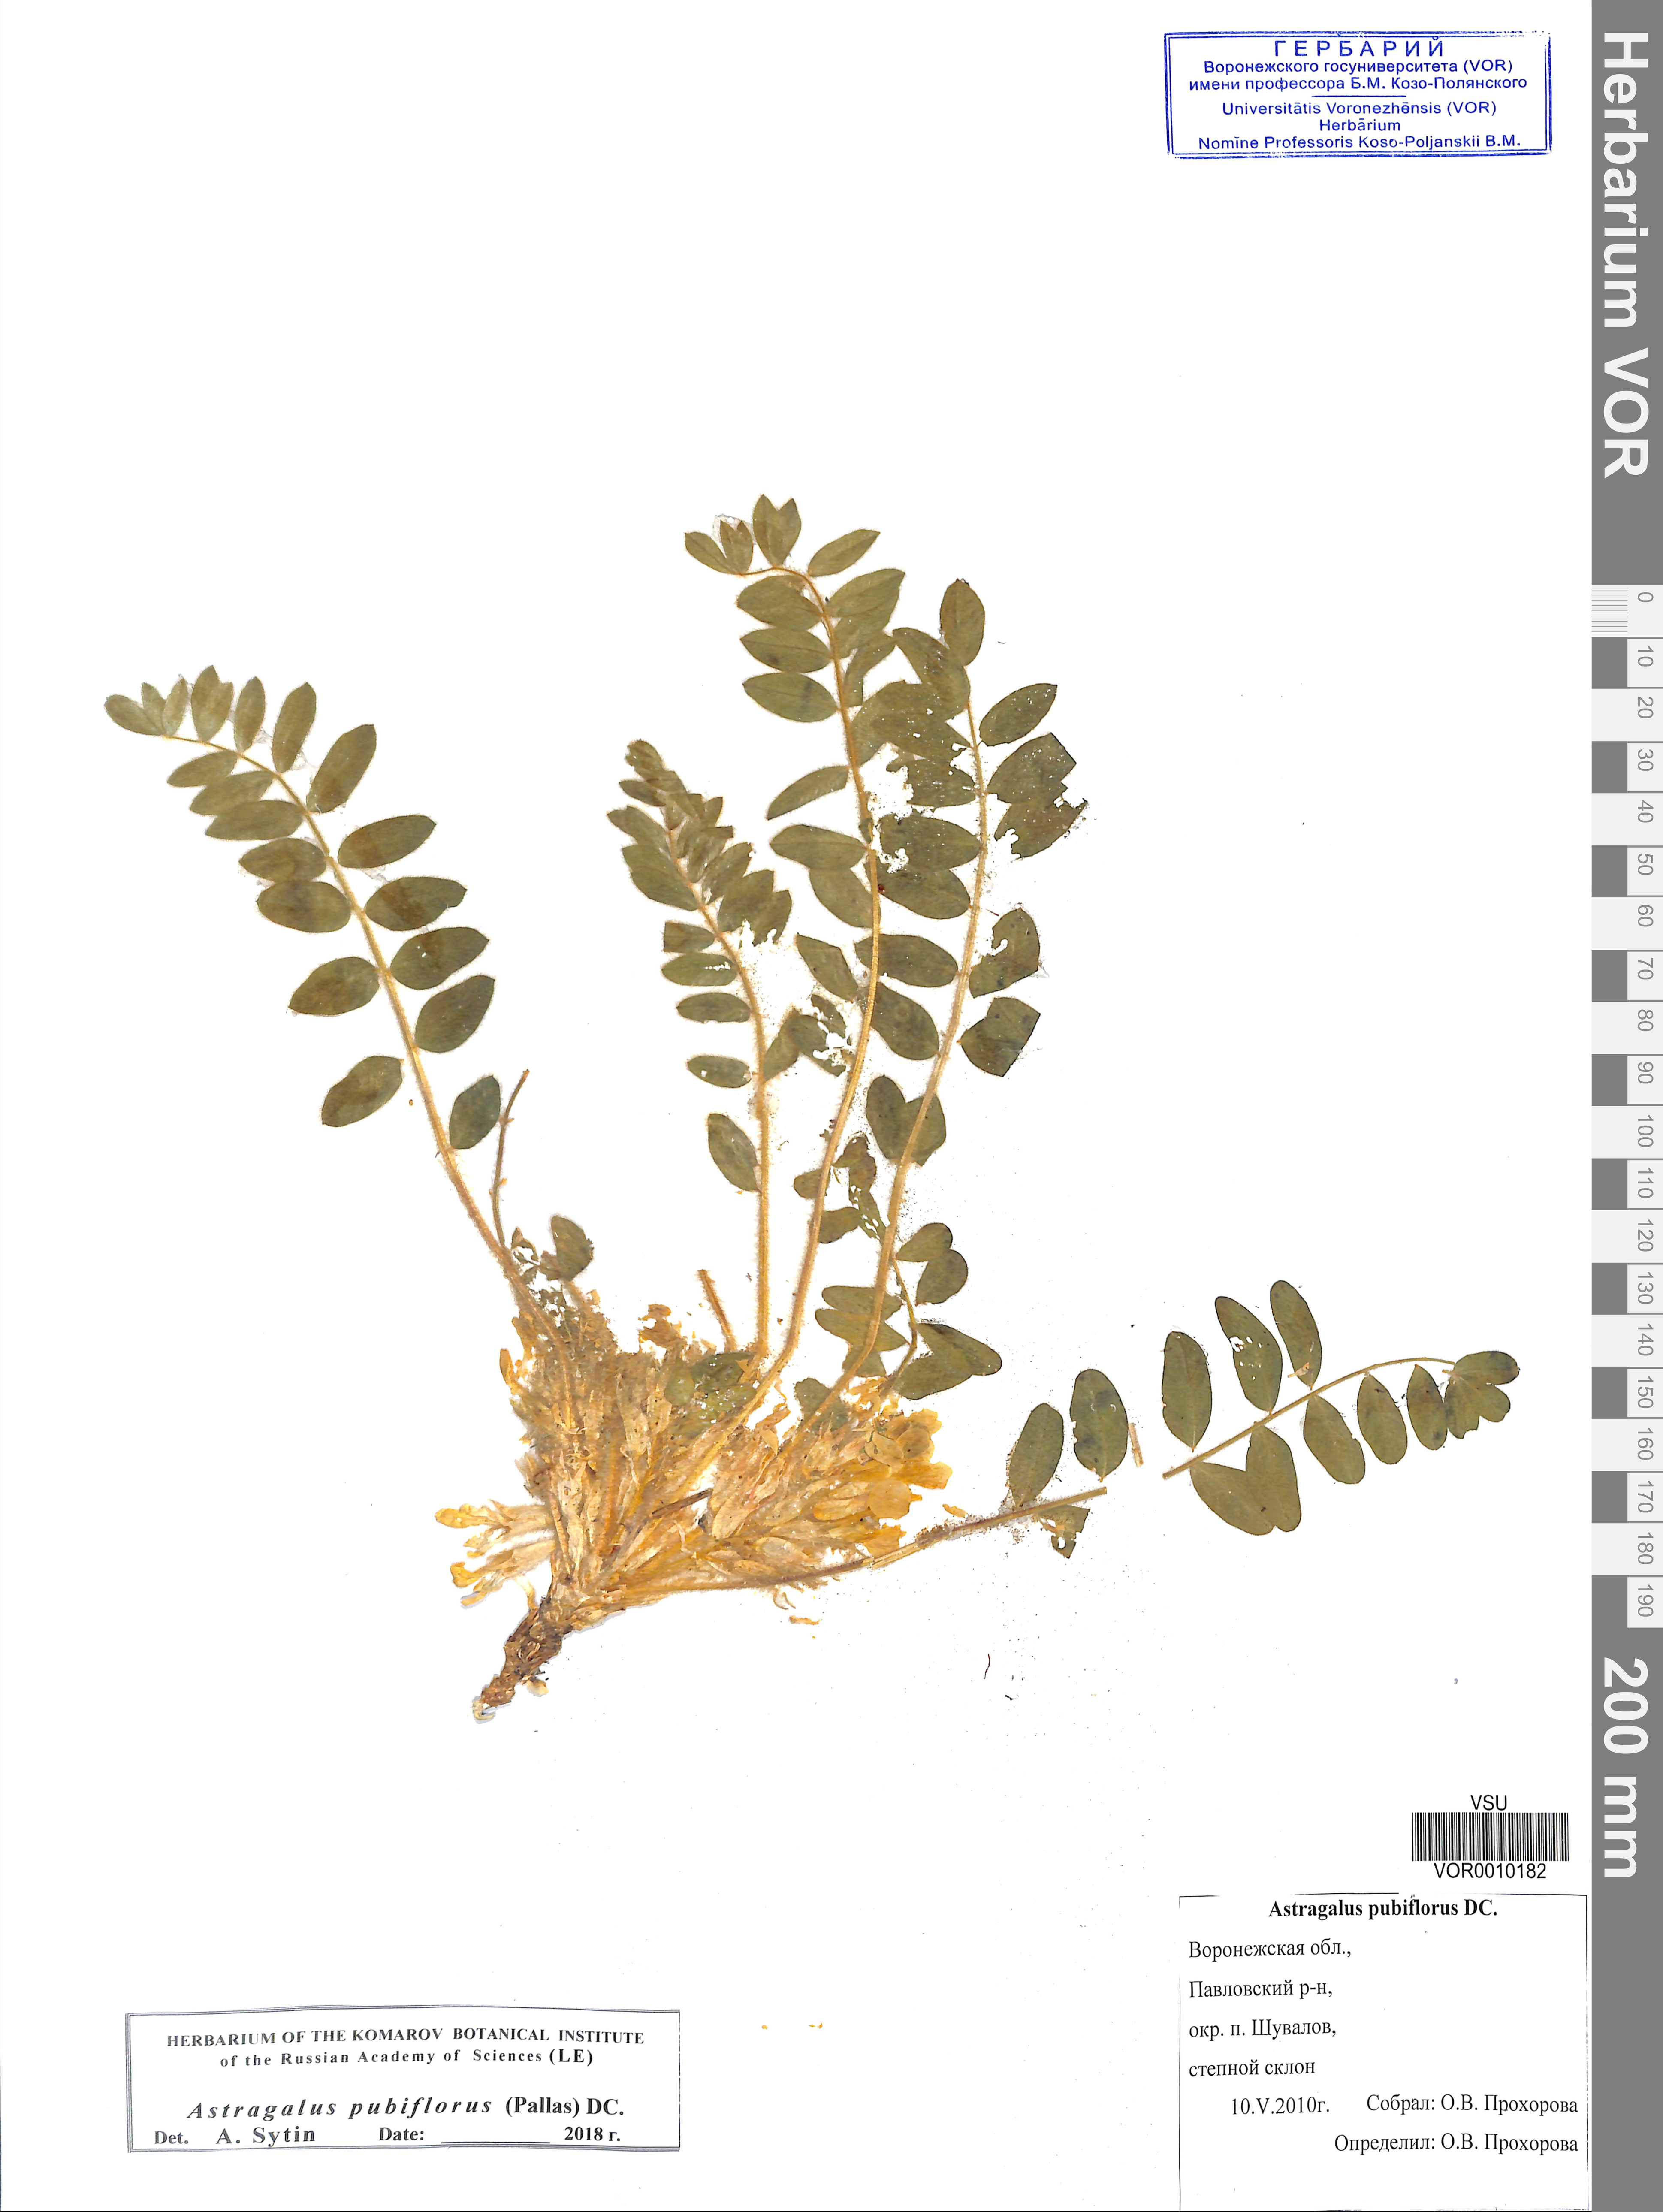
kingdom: Plantae
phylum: Tracheophyta
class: Magnoliopsida
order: Fabales
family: Fabaceae
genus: Astragalus
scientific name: Astragalus exscapus
